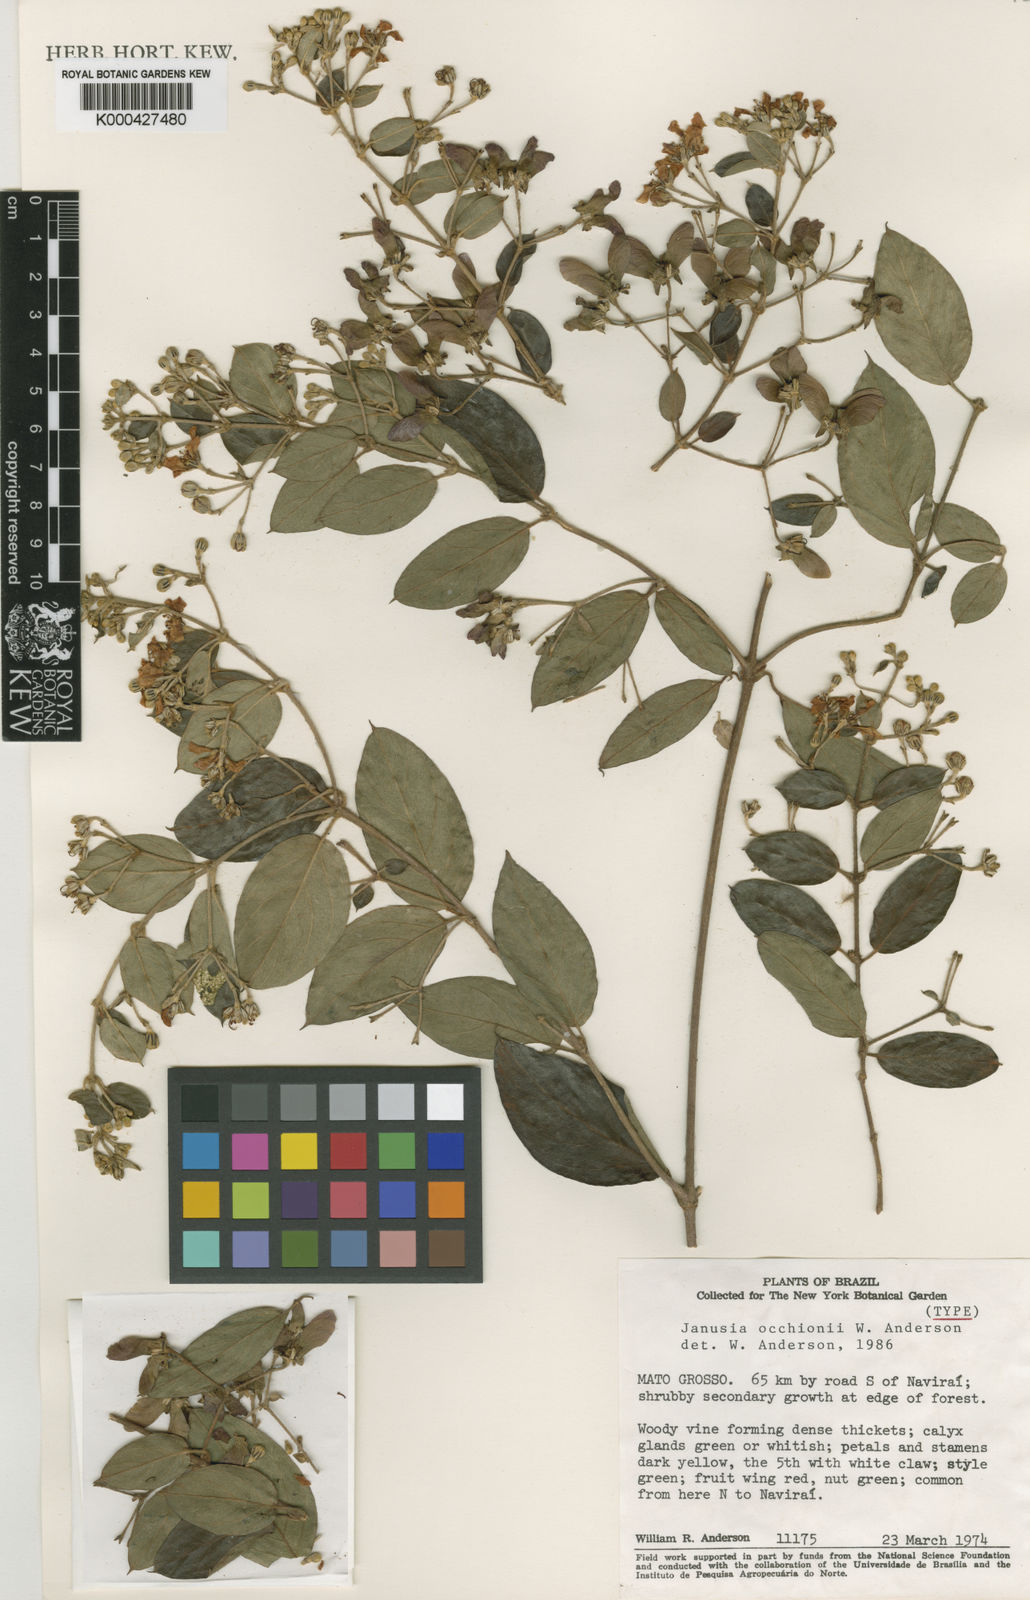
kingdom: Plantae
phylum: Tracheophyta
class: Magnoliopsida
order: Malpighiales
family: Malpighiaceae
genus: Janusia
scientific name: Janusia occhionii
